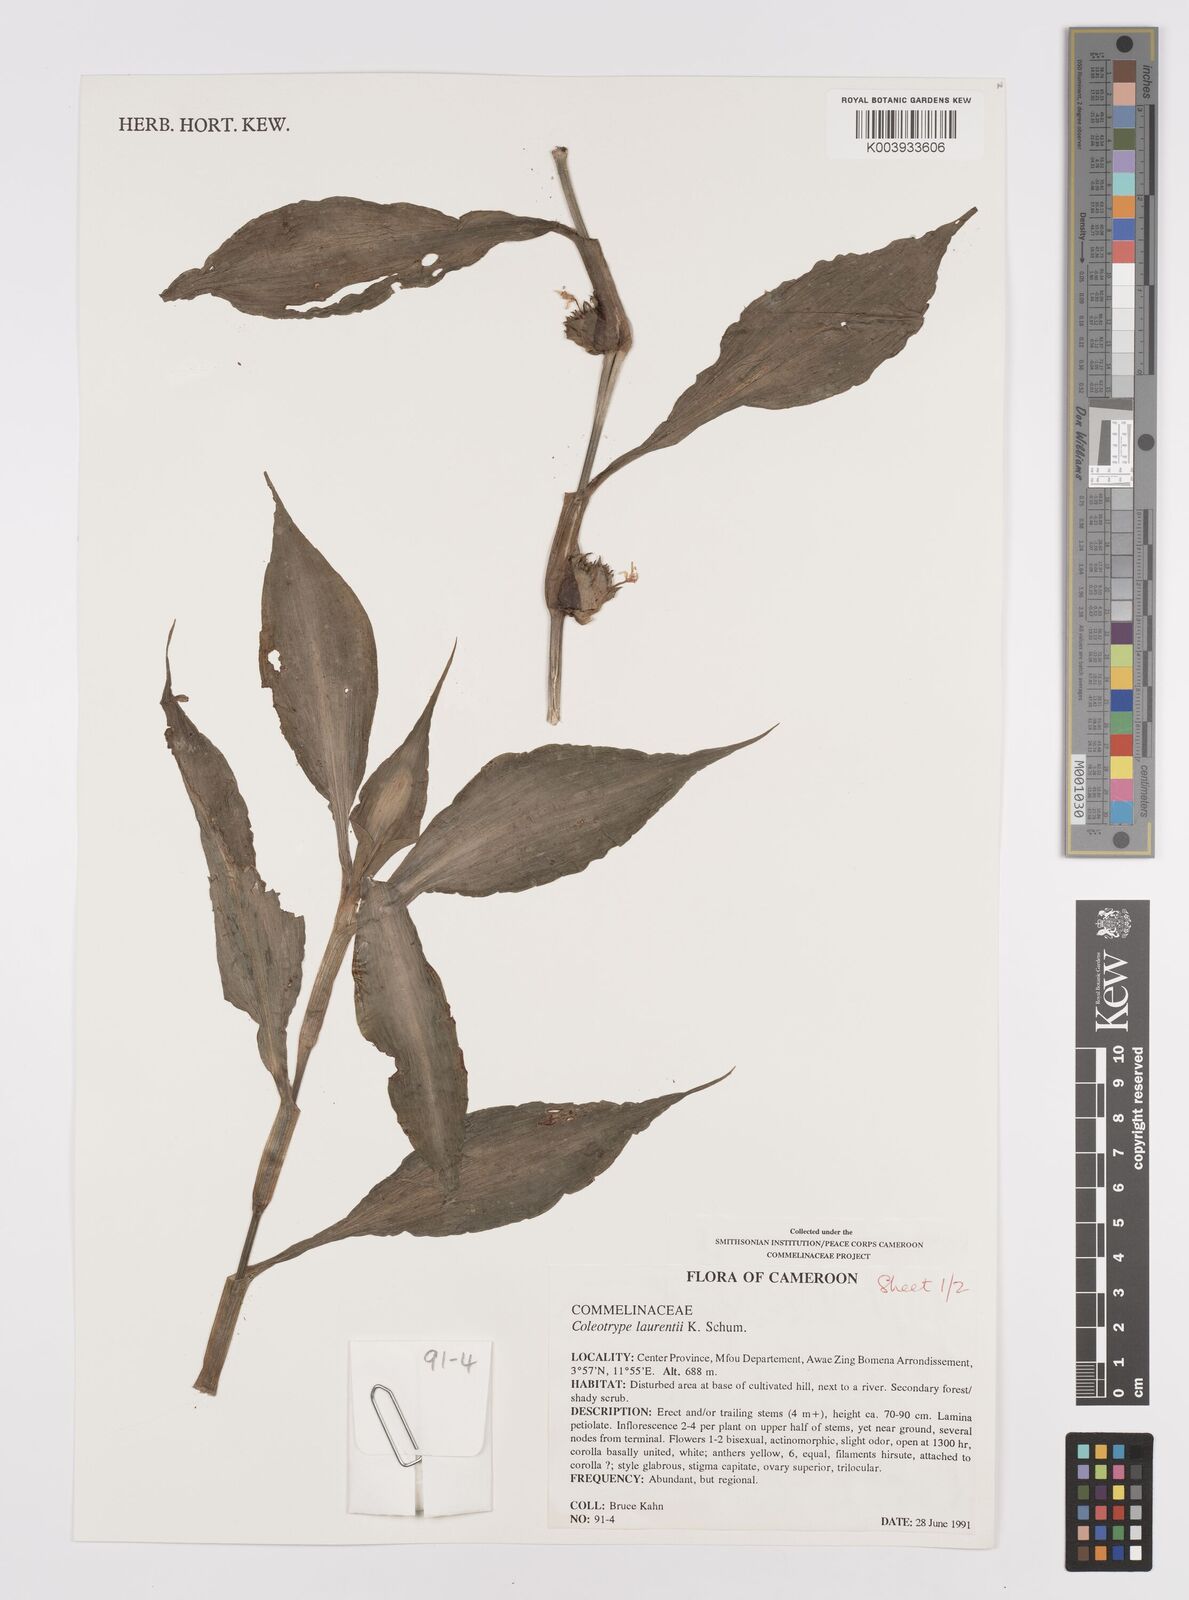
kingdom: Plantae
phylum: Tracheophyta
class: Liliopsida
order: Commelinales
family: Commelinaceae
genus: Coleotrype
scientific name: Coleotrype laurentii
